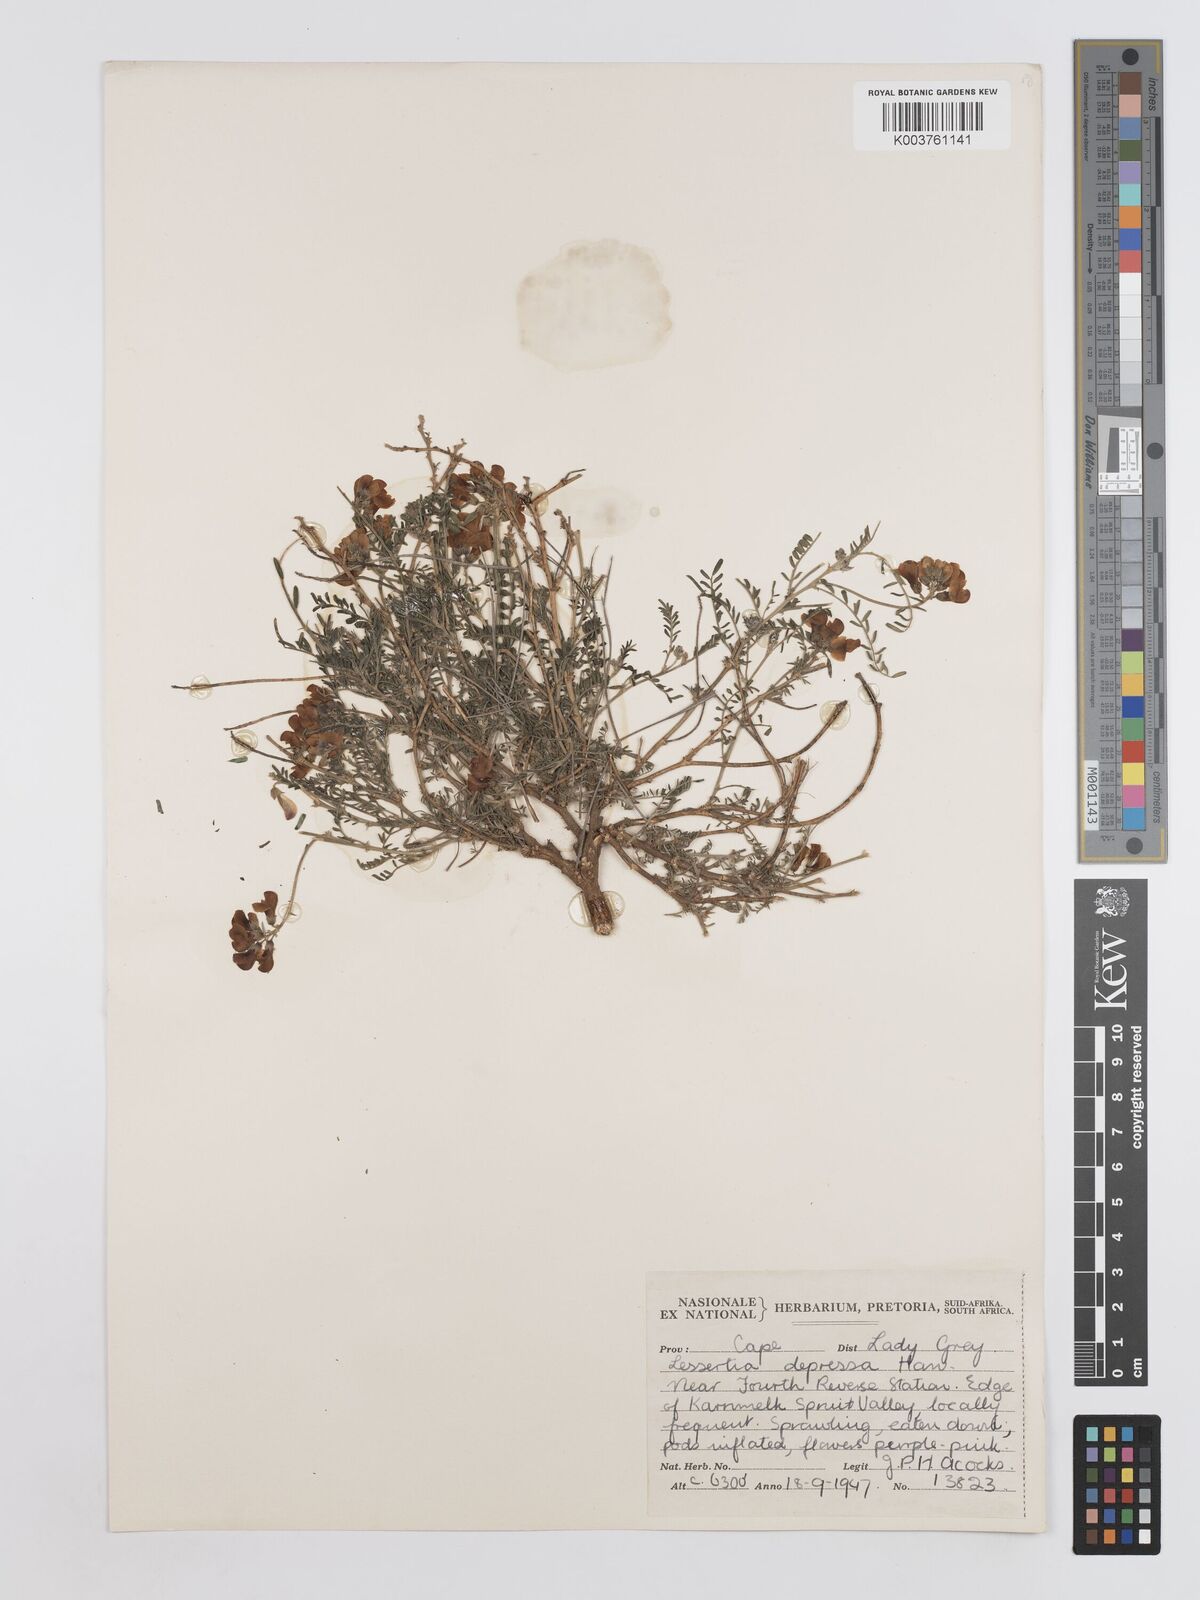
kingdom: Plantae
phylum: Tracheophyta
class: Magnoliopsida
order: Fabales
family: Fabaceae
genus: Lessertia
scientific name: Lessertia depressa
